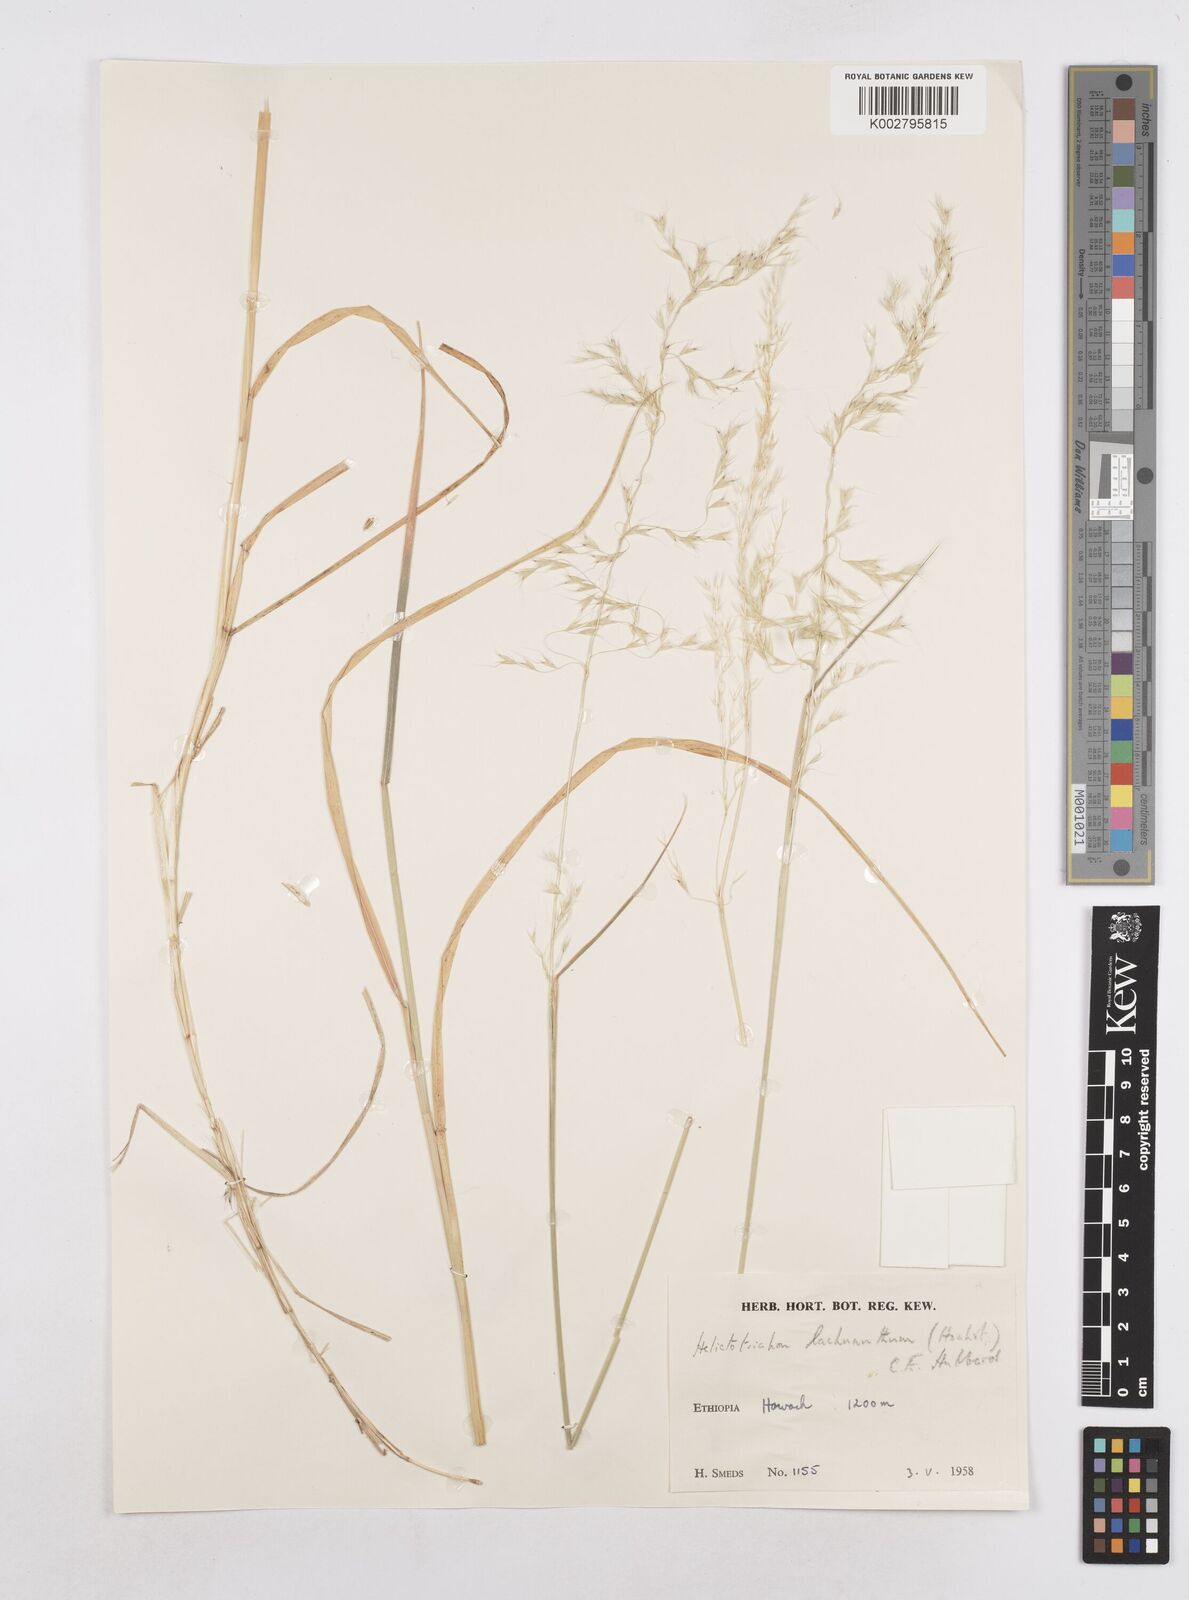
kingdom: Plantae
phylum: Tracheophyta
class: Liliopsida
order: Poales
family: Poaceae
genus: Trisetopsis
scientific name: Trisetopsis lachnantha
